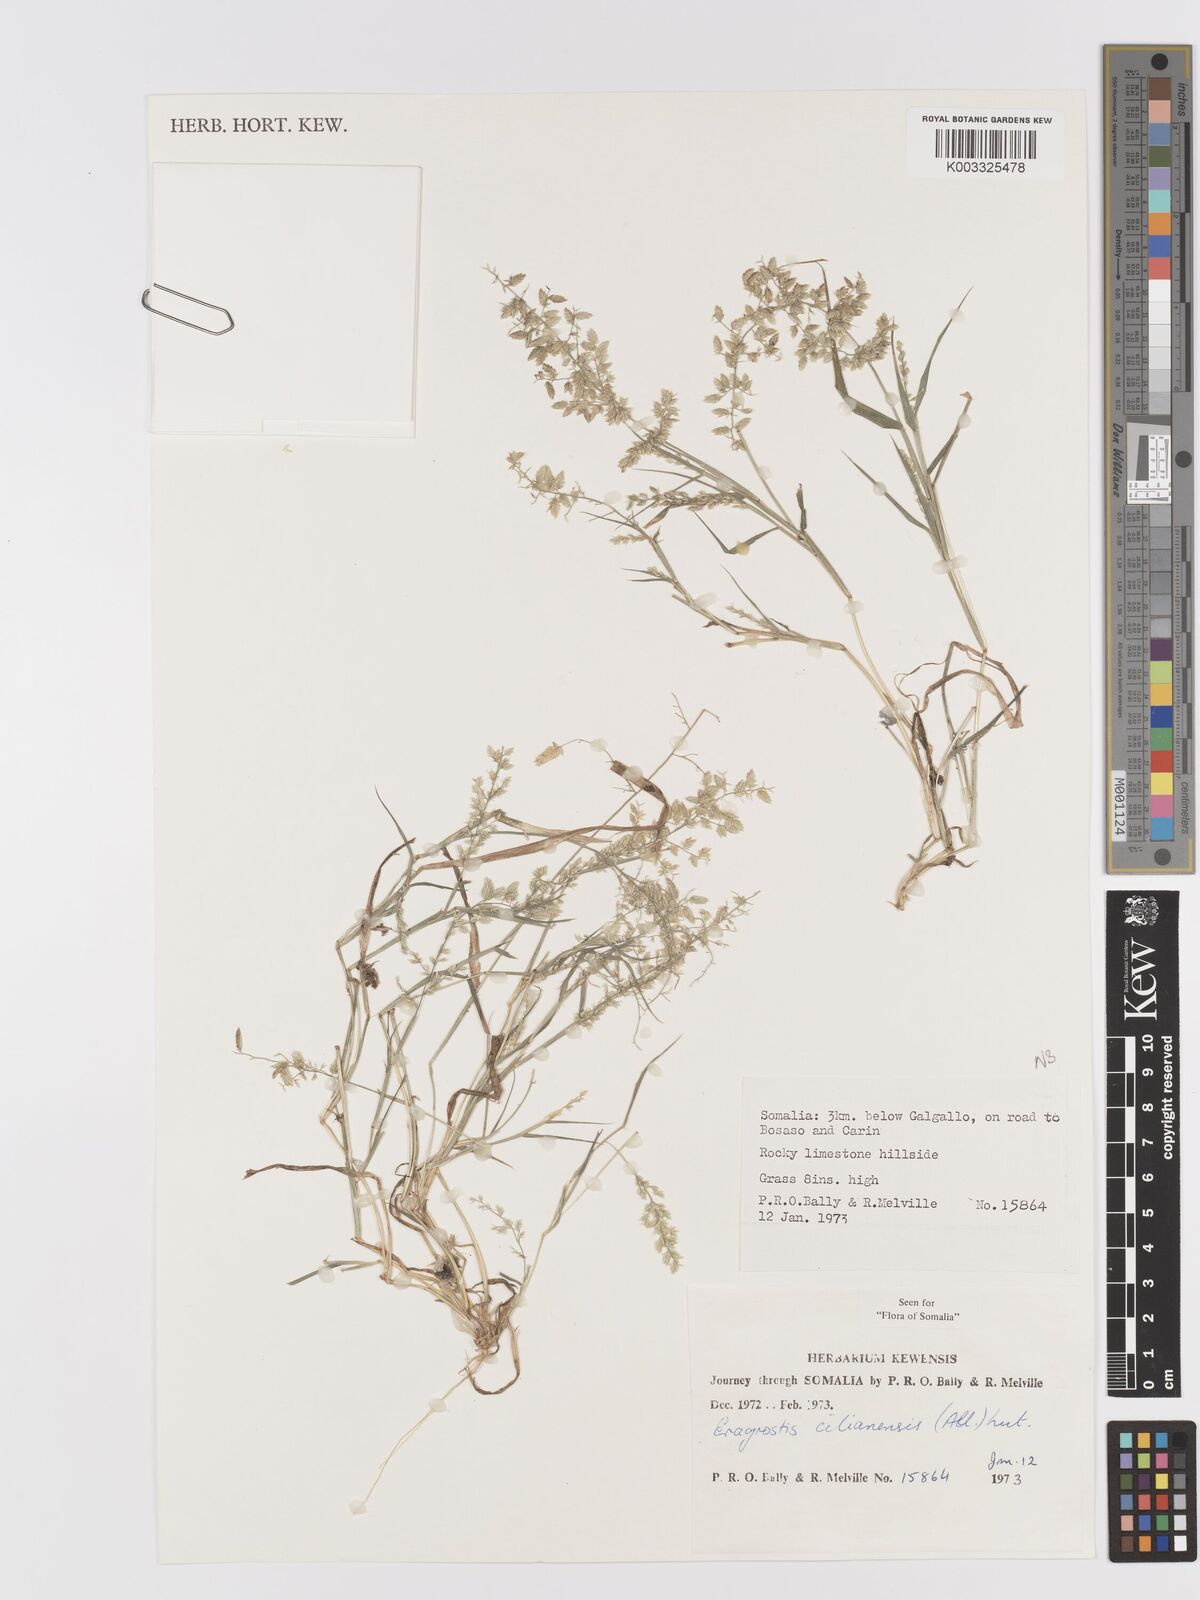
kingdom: Plantae
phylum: Tracheophyta
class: Liliopsida
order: Poales
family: Poaceae
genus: Eragrostis
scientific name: Eragrostis cilianensis
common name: Stinkgrass
